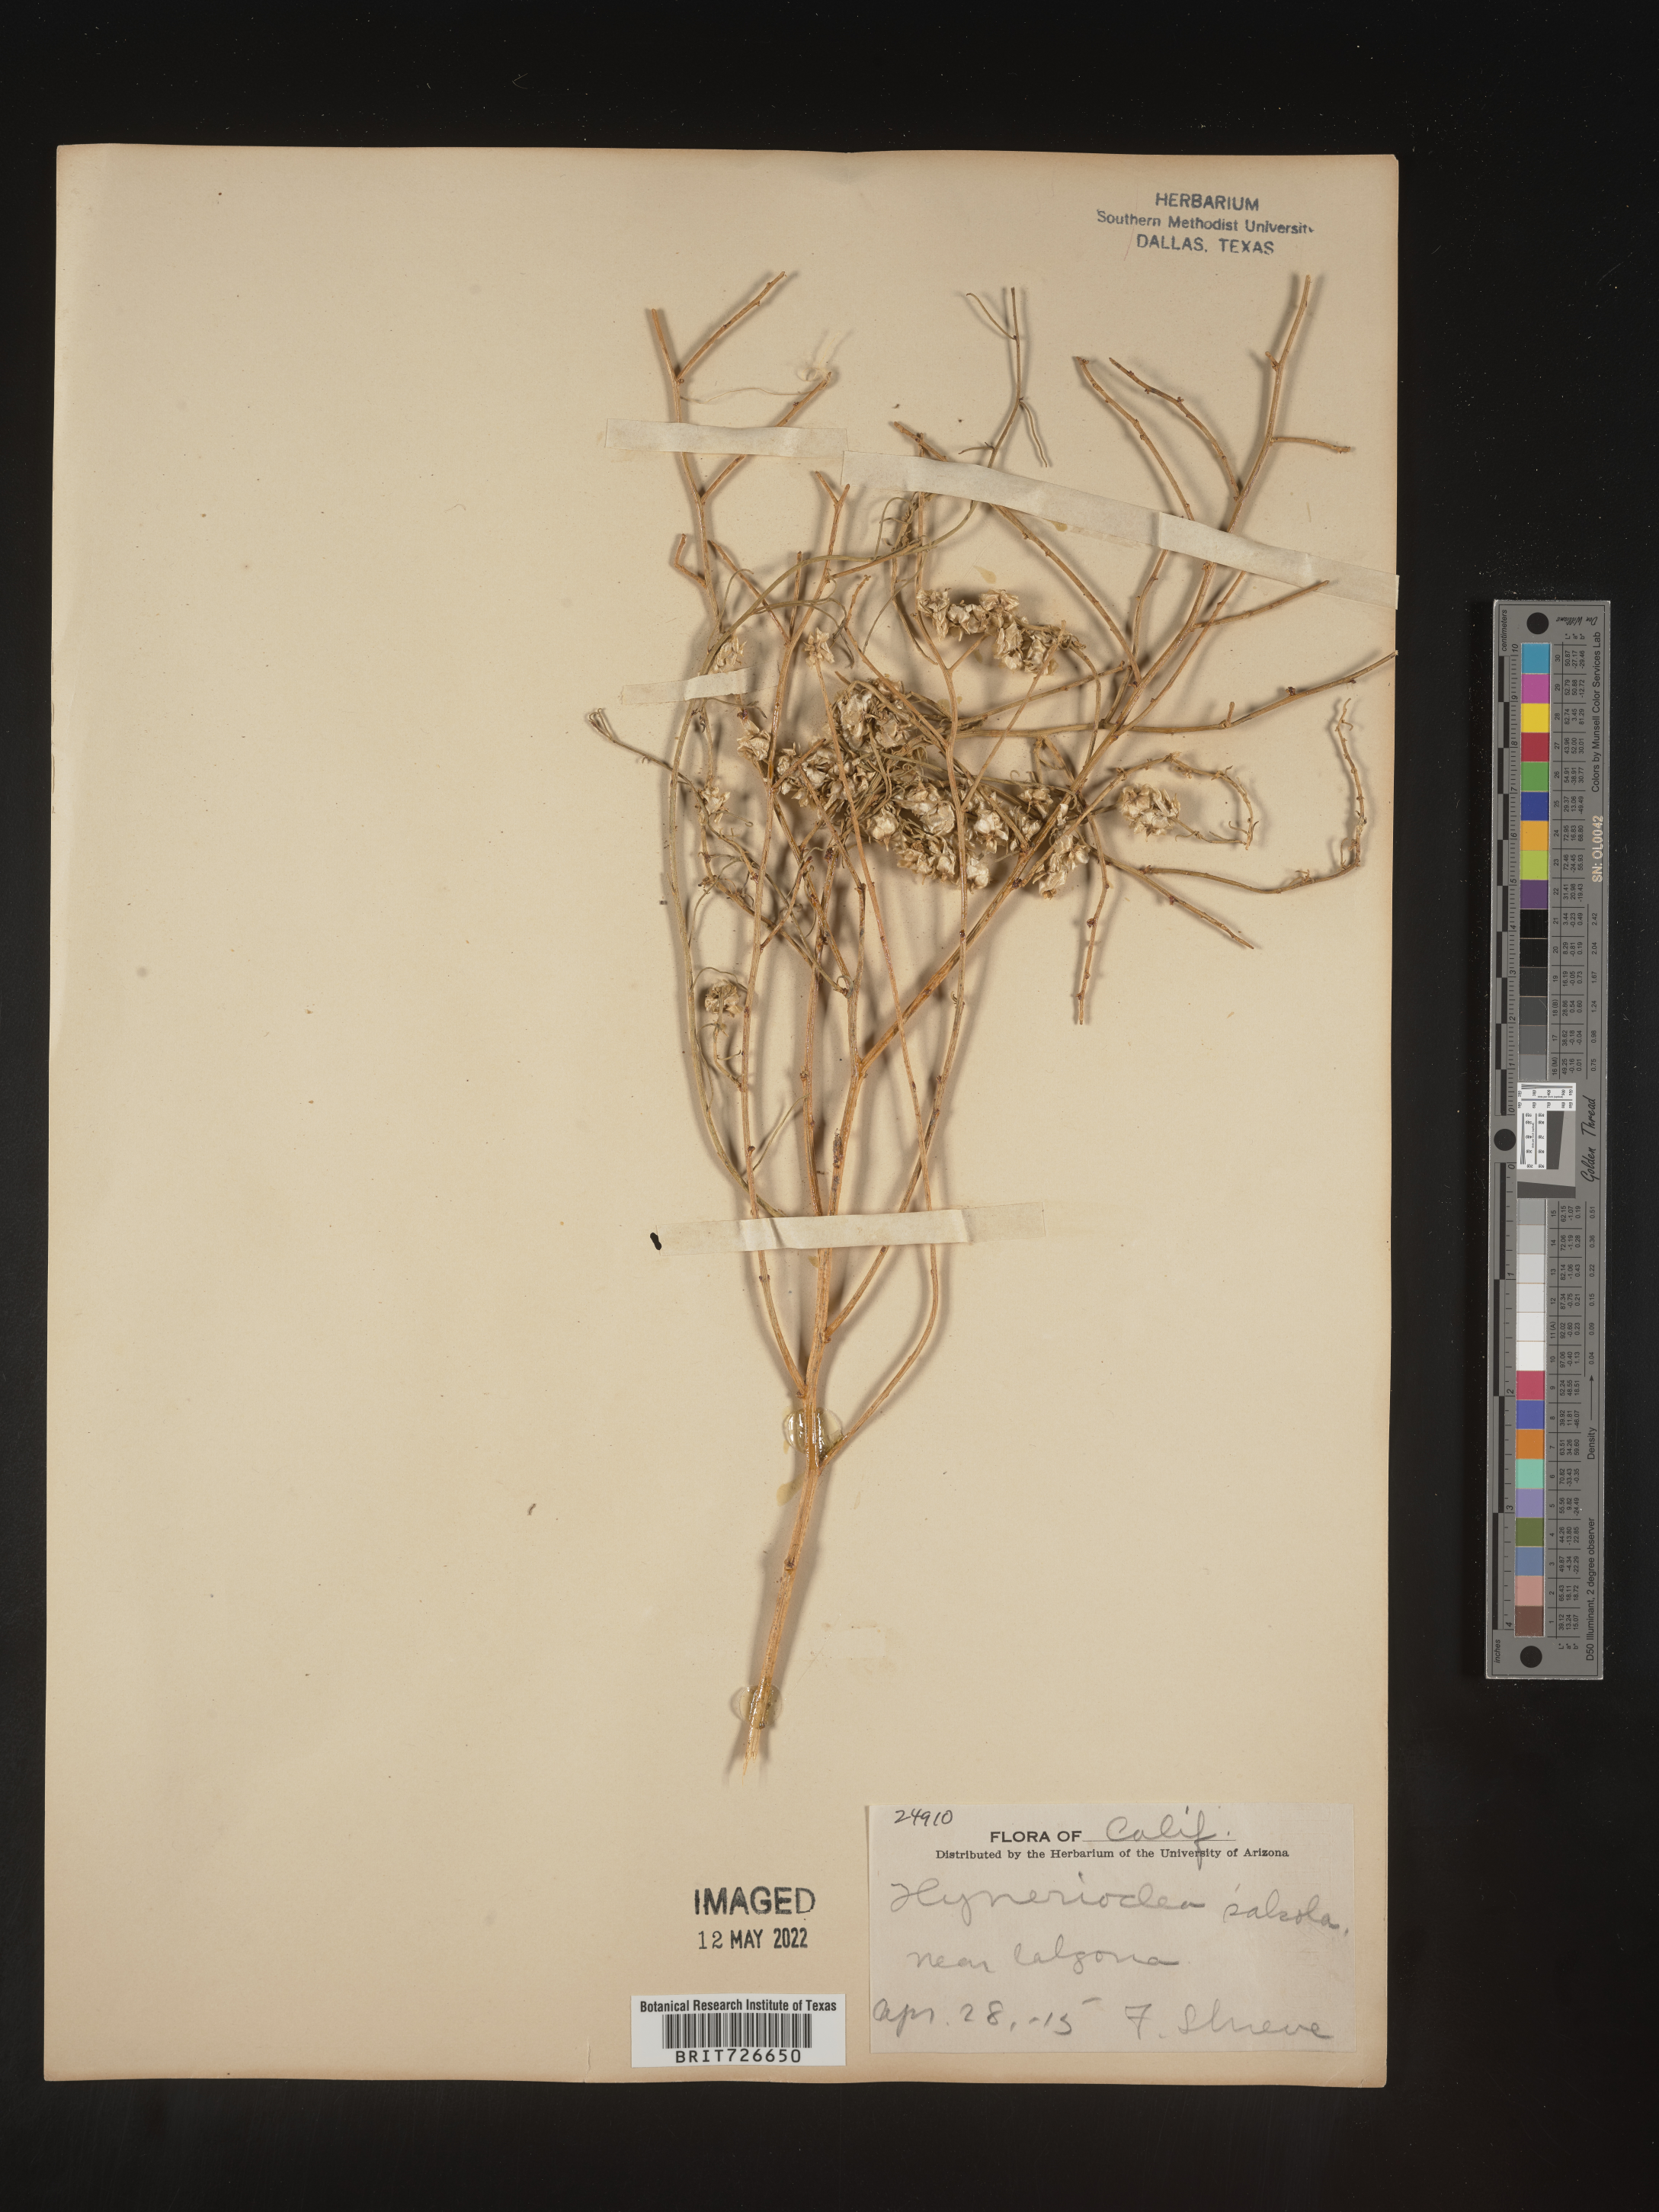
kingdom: Animalia
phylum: Arthropoda
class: Insecta
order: Lepidoptera
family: Sesiidae
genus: Hymenoclea
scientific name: Hymenoclea
